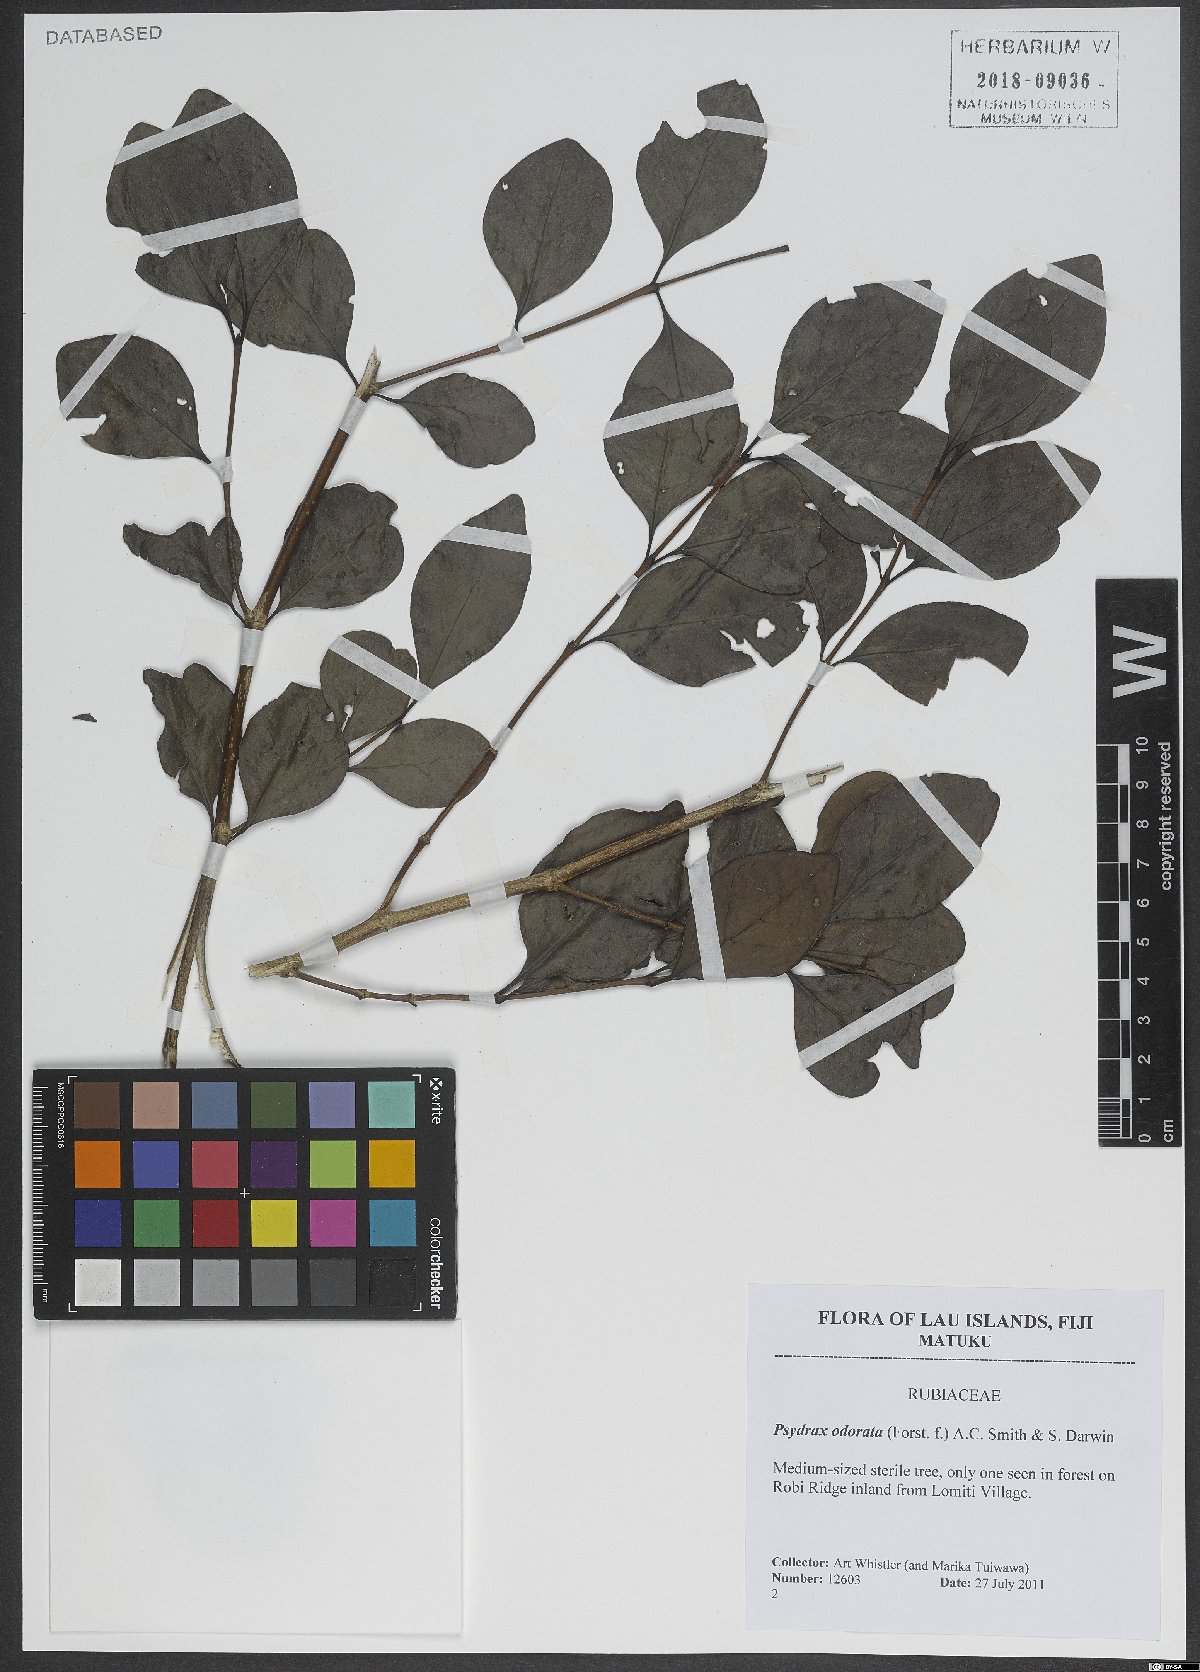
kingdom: Plantae
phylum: Tracheophyta
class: Magnoliopsida
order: Gentianales
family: Rubiaceae
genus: Psydrax
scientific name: Psydrax odoratus
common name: Alahe'e
